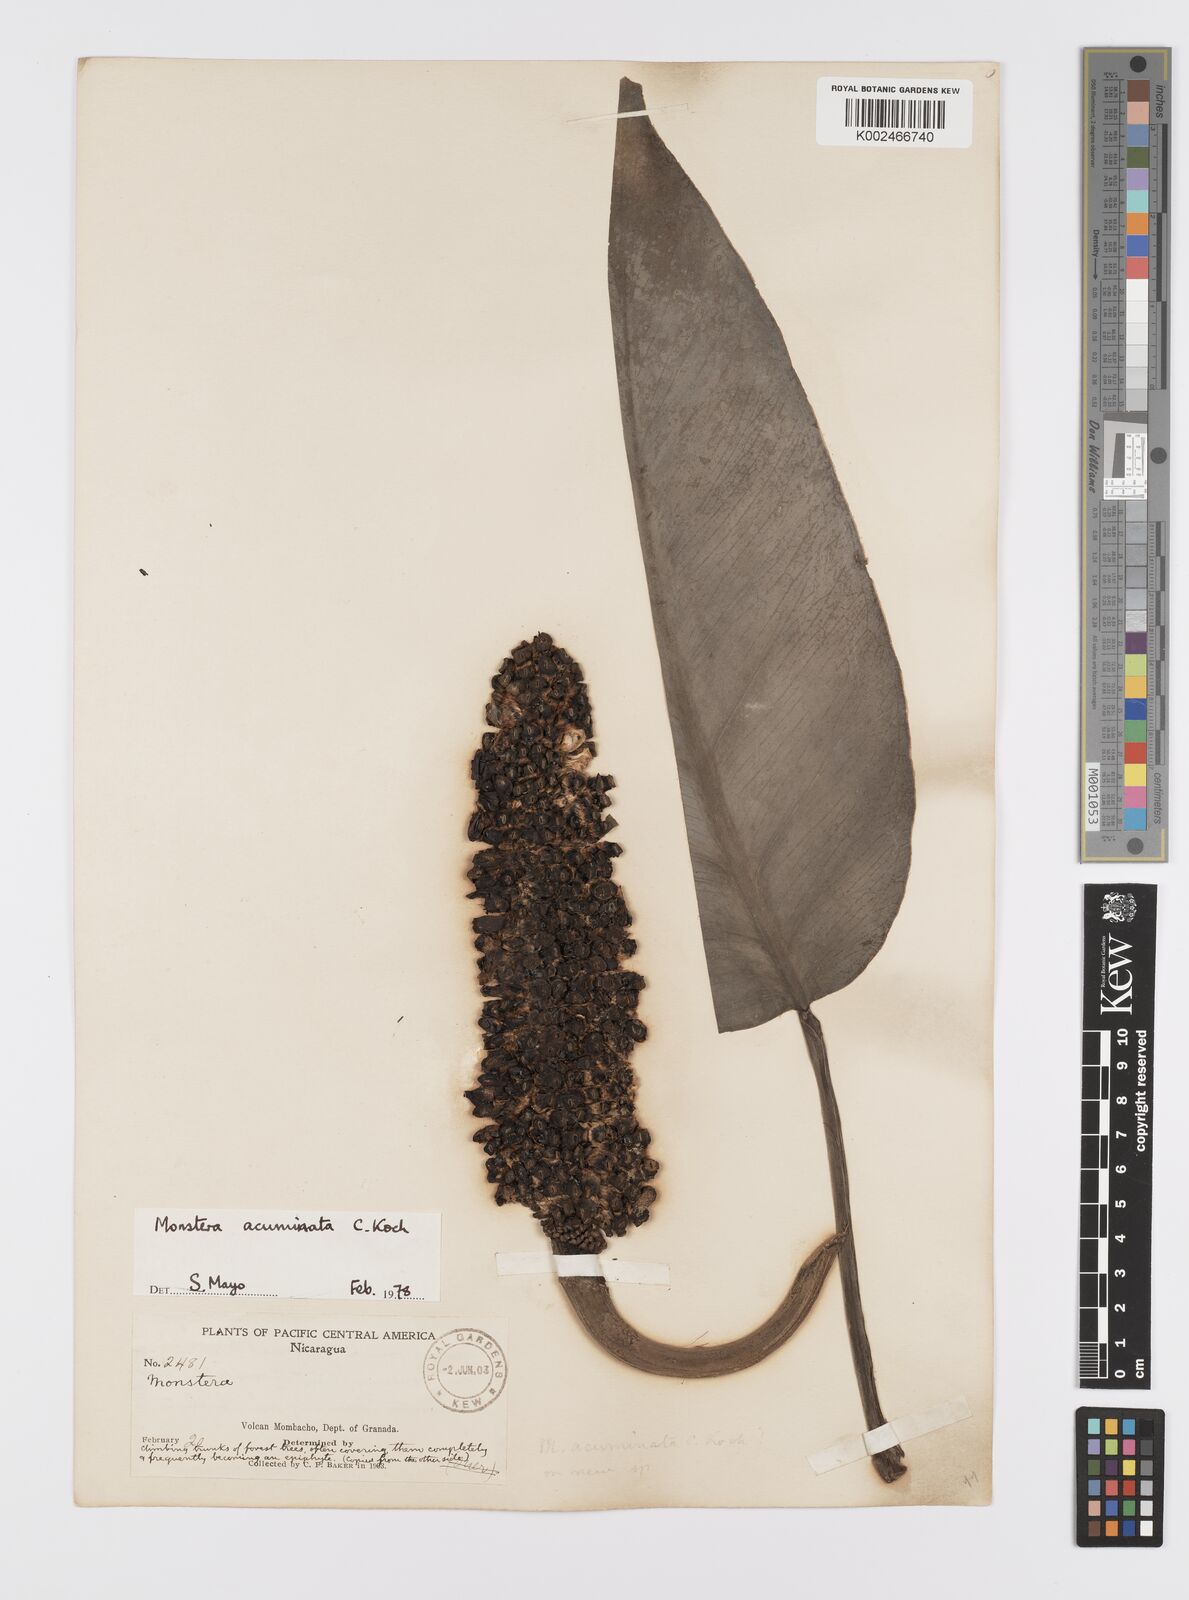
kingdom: Plantae
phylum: Tracheophyta
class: Liliopsida
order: Alismatales
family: Araceae
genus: Monstera
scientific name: Monstera acuminata
